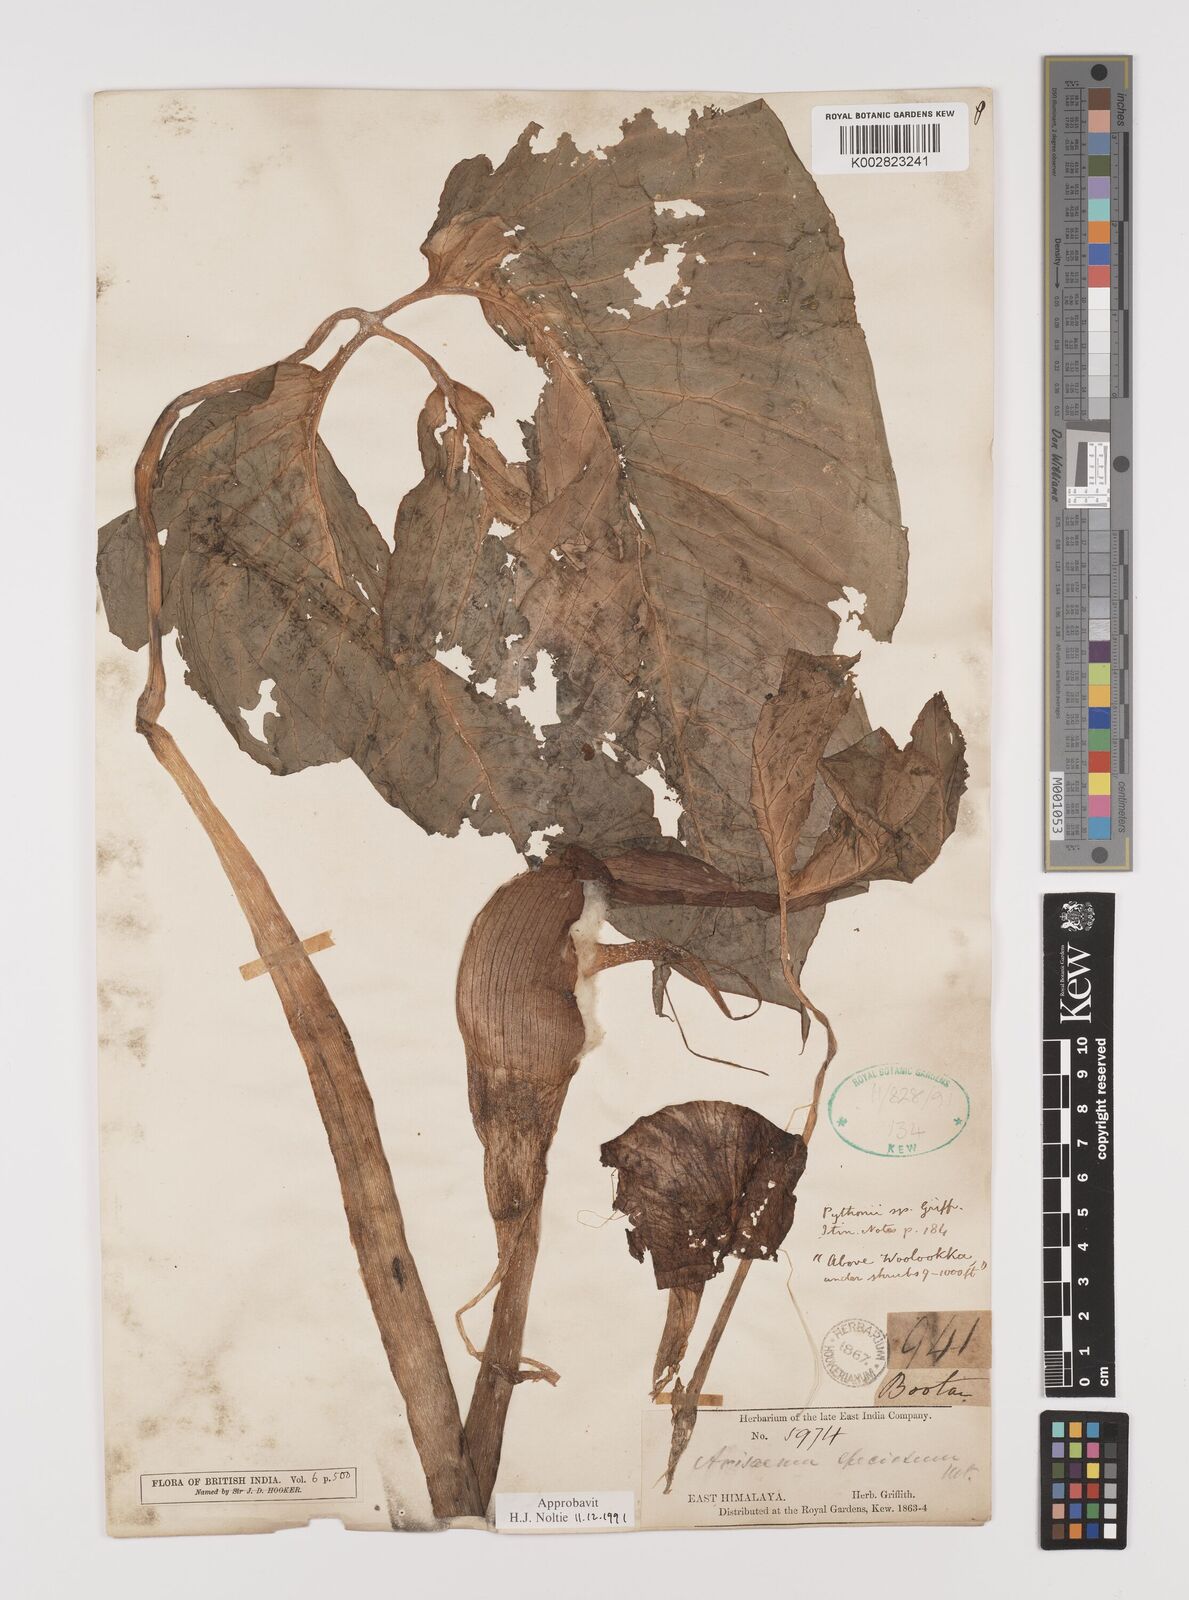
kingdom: Plantae
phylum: Tracheophyta
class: Liliopsida
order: Alismatales
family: Araceae
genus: Arisaema
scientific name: Arisaema speciosum
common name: Showy cobra-lily
